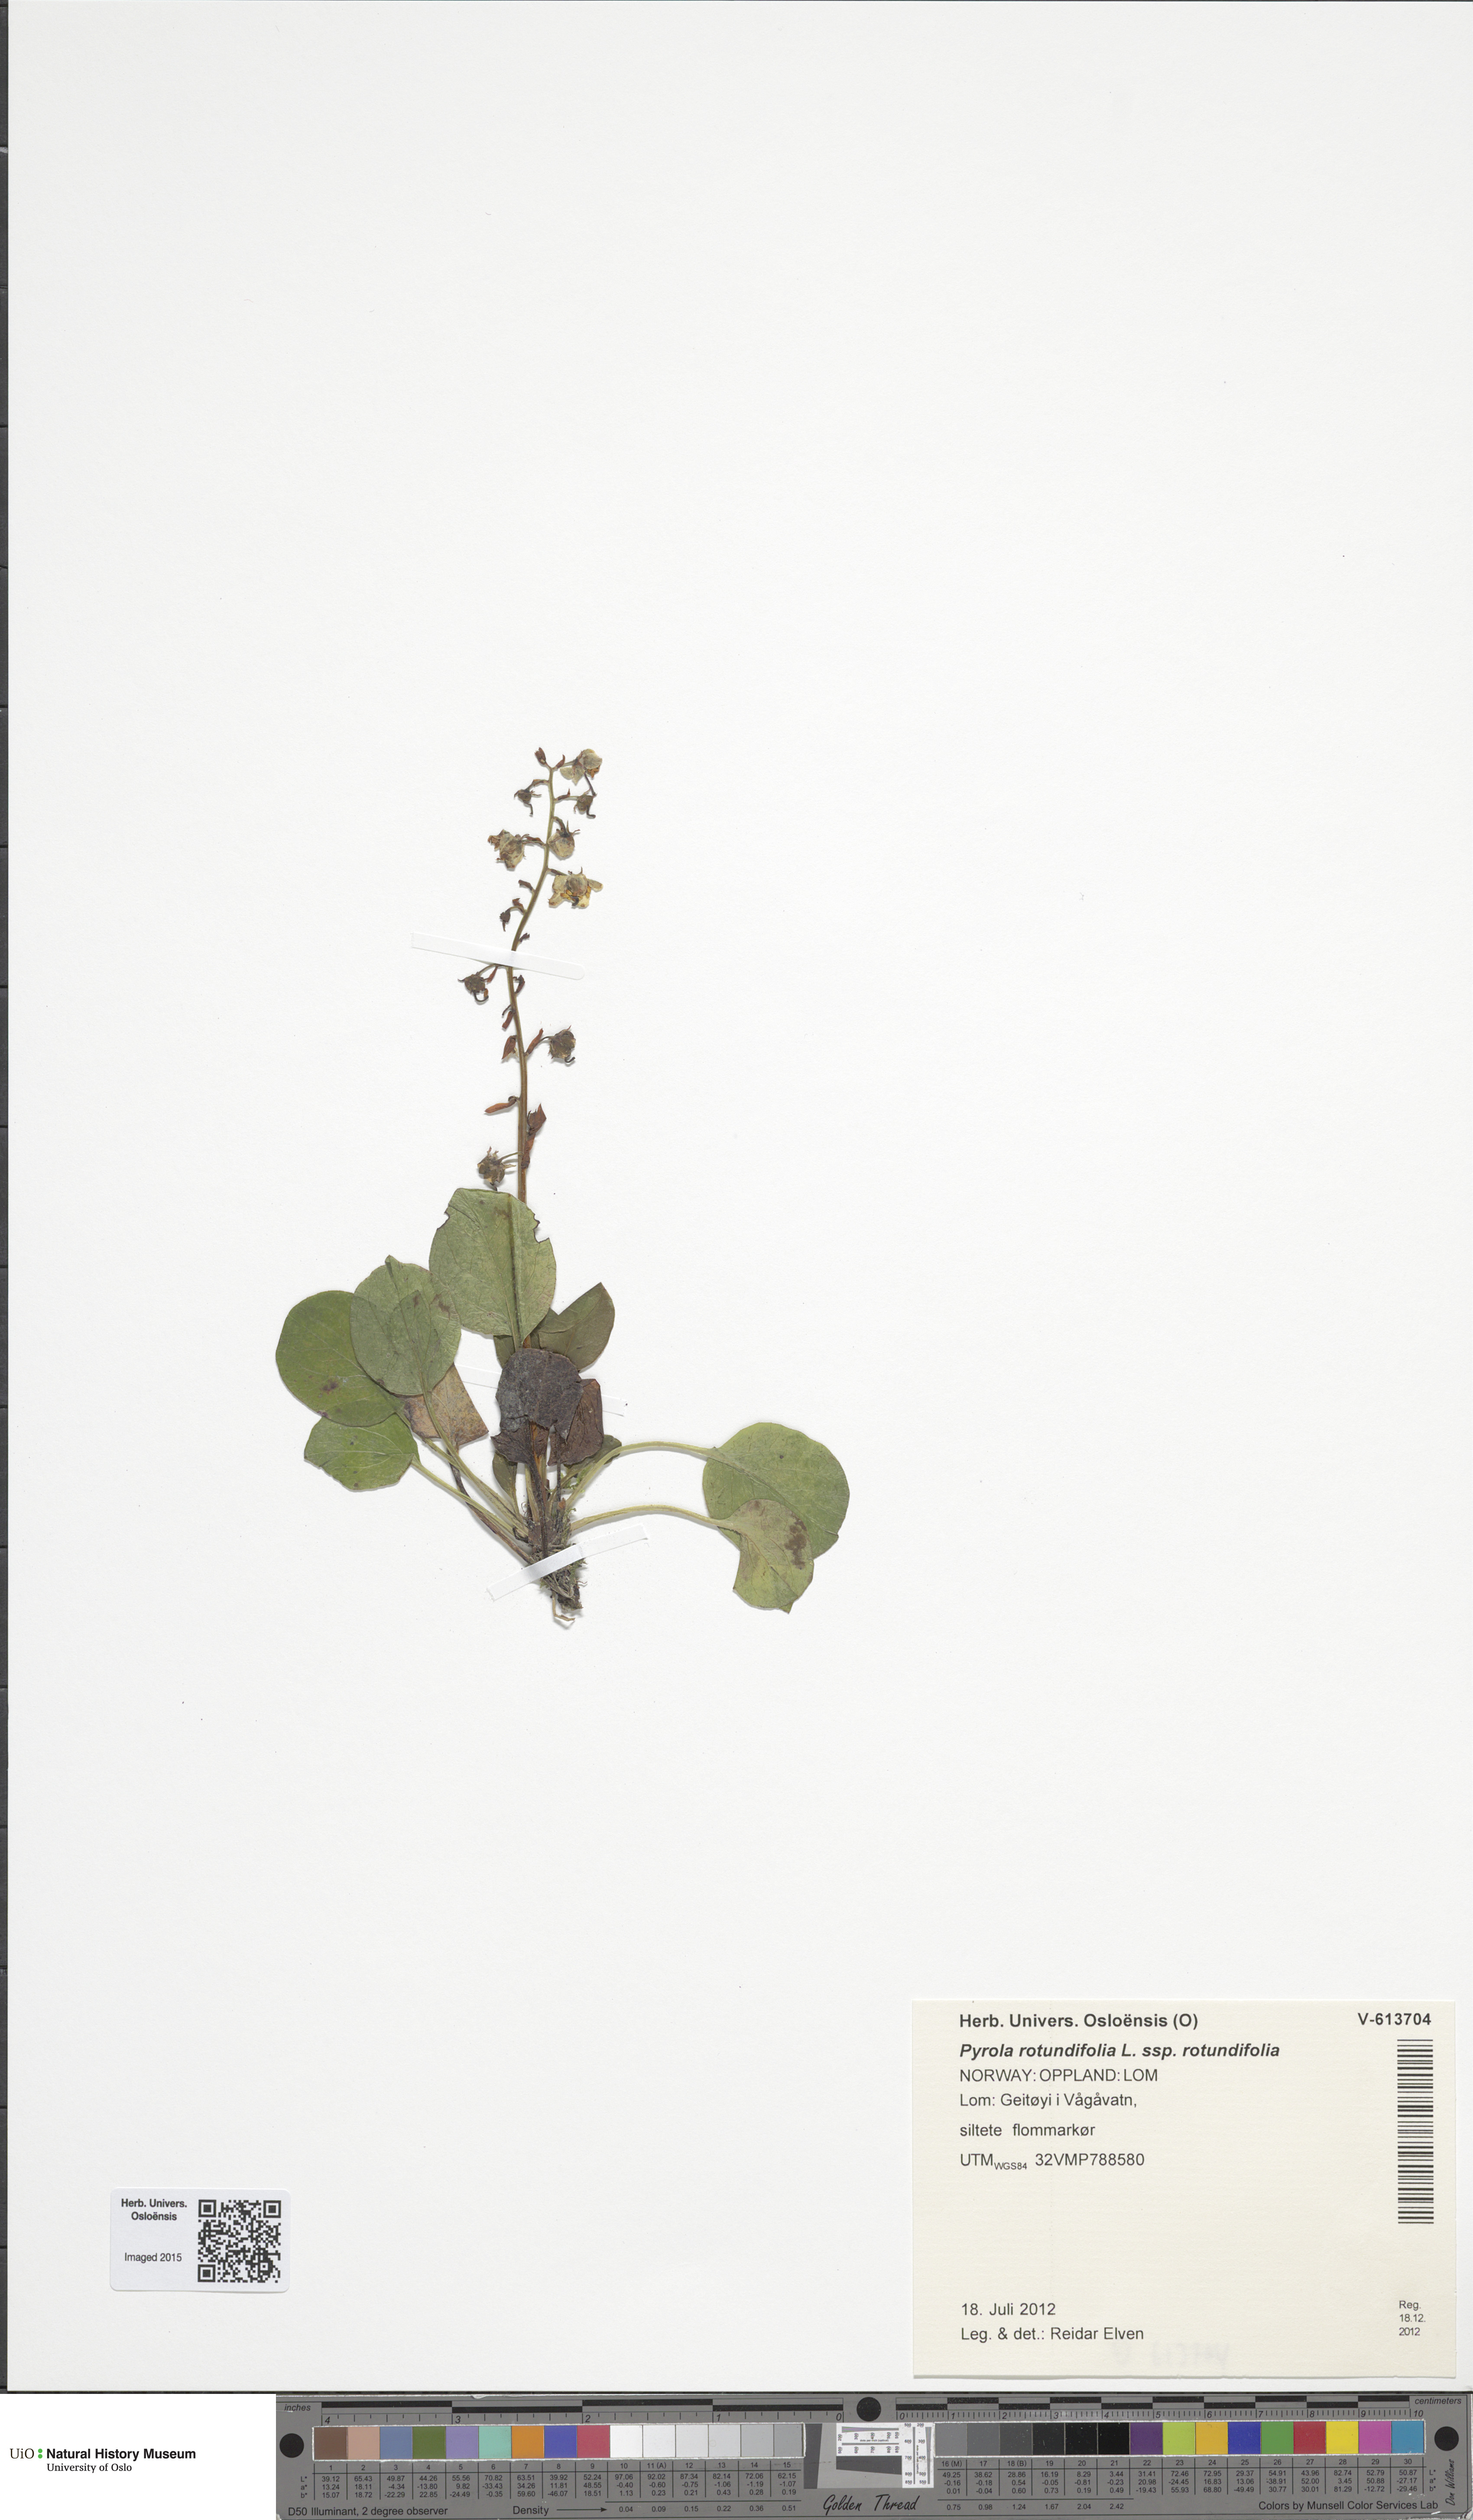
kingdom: Plantae
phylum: Tracheophyta
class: Magnoliopsida
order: Ericales
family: Ericaceae
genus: Pyrola
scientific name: Pyrola rotundifolia
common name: Round-leaved wintergreen
